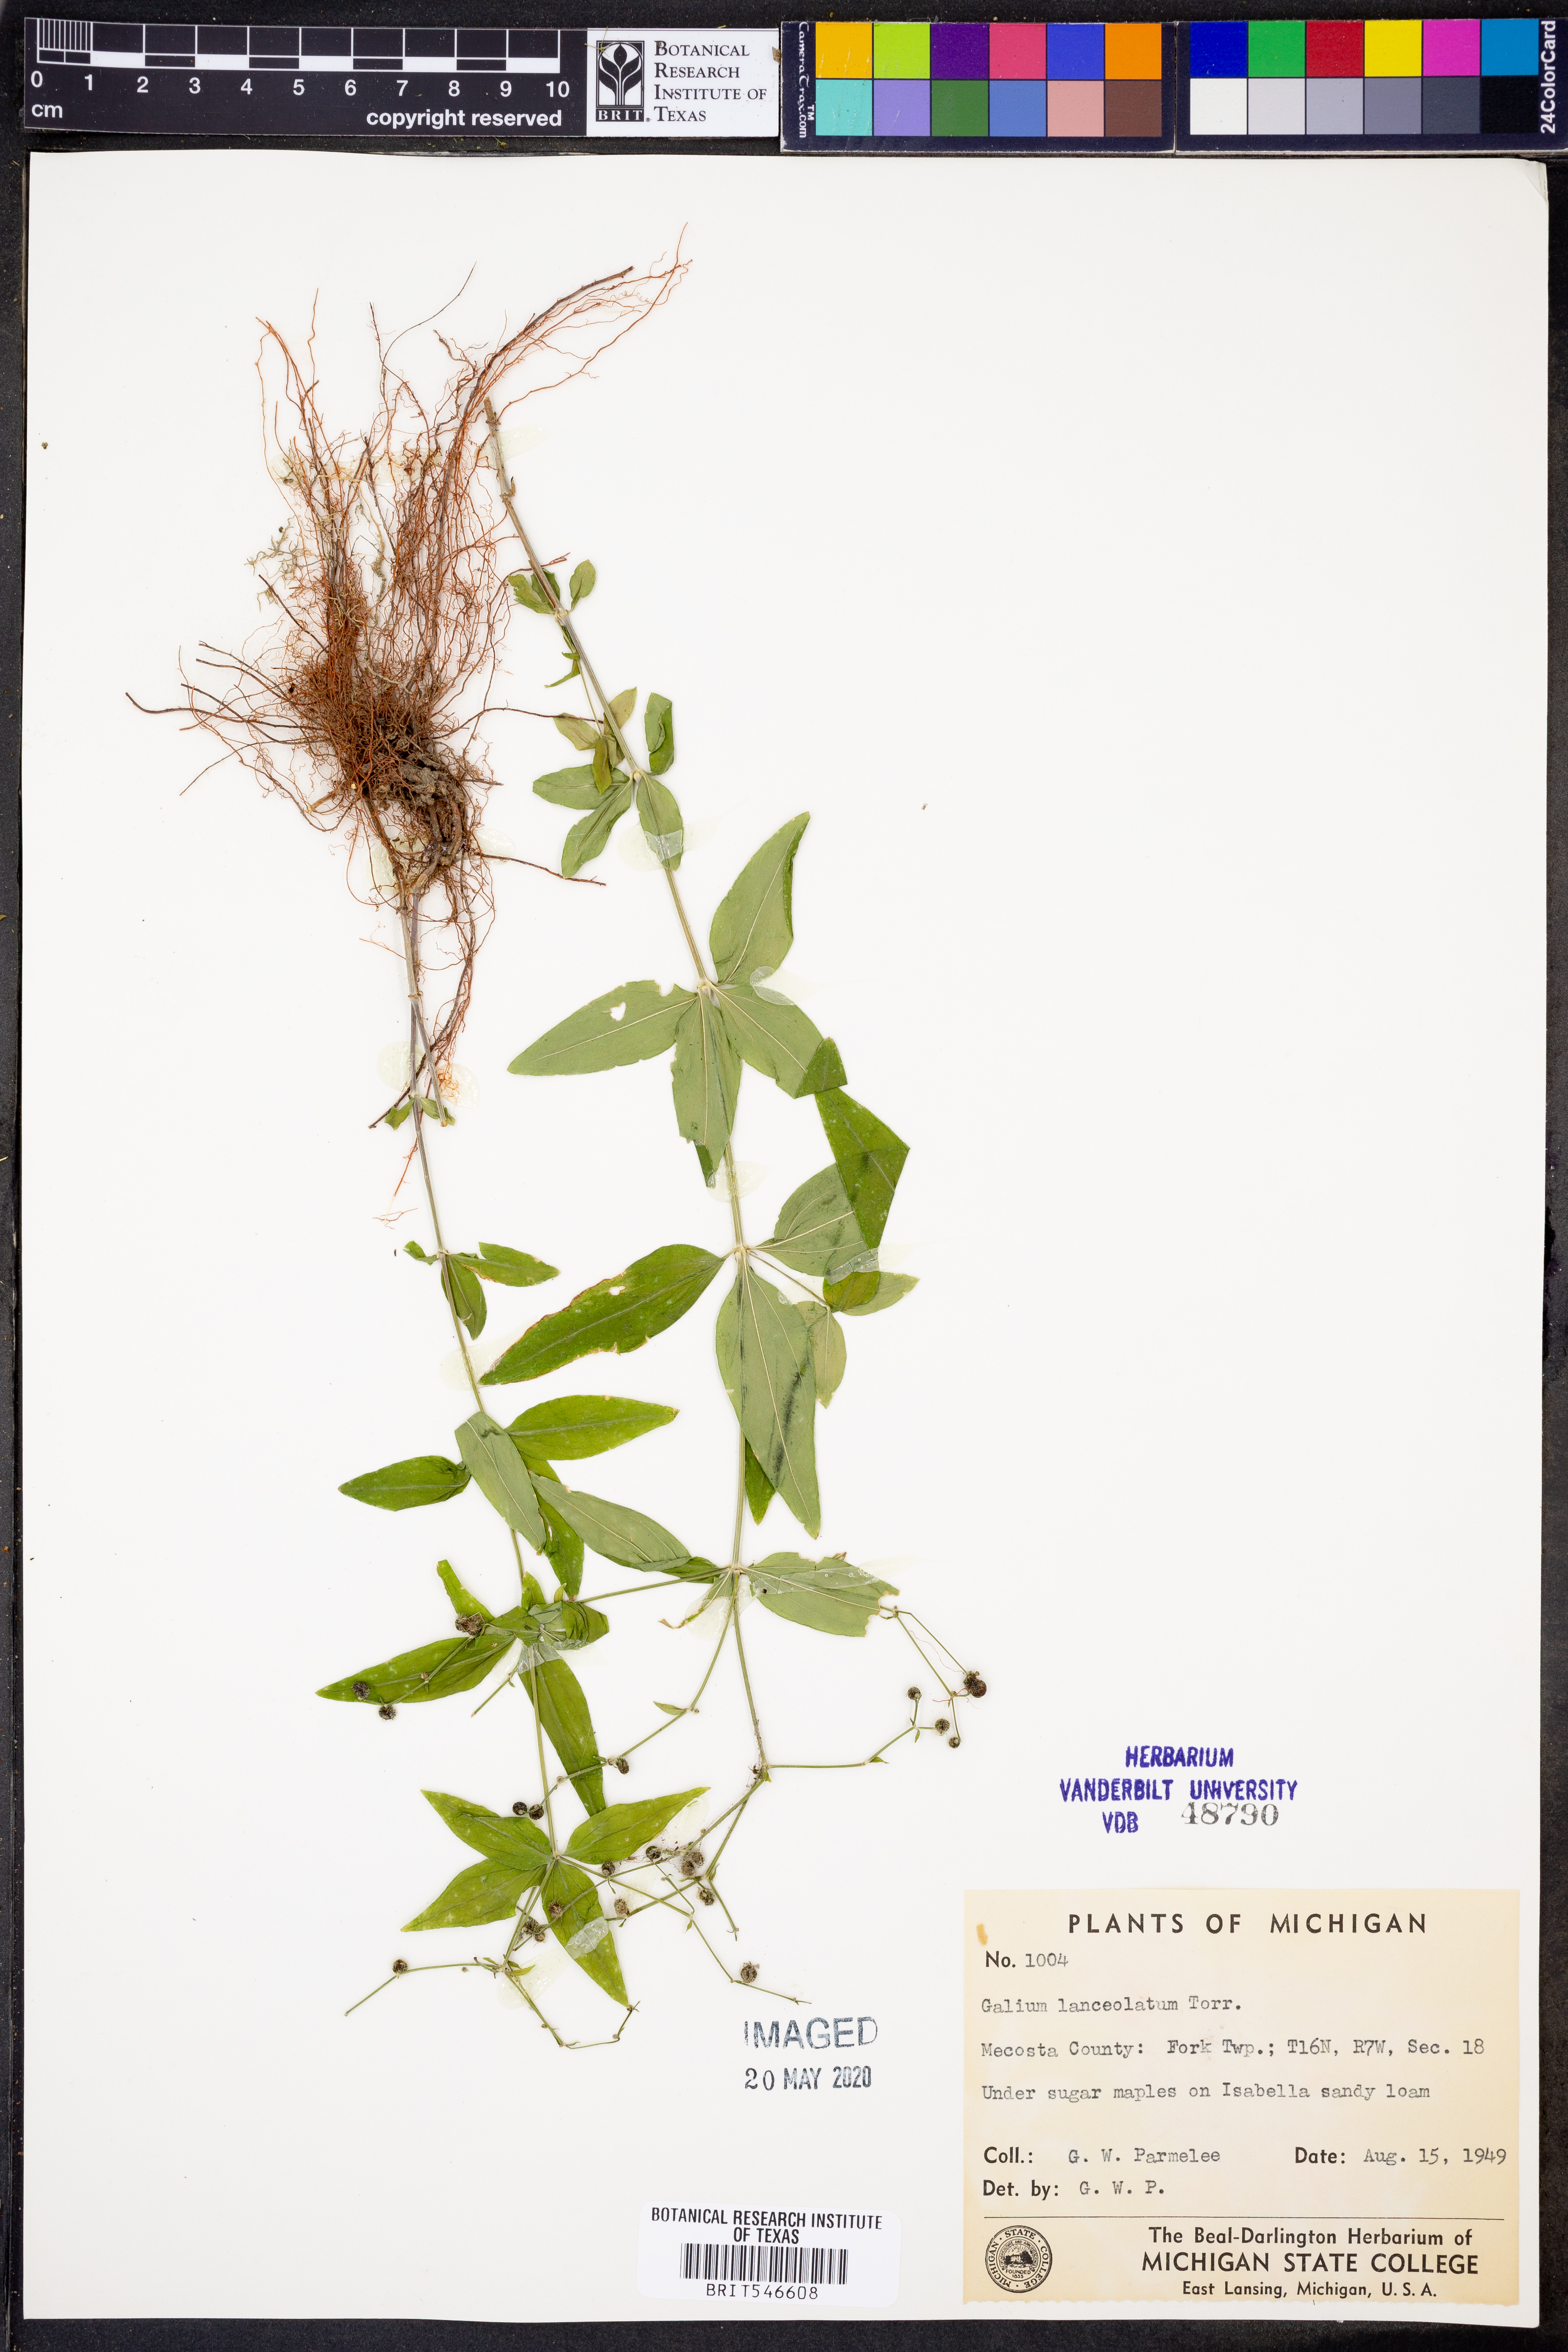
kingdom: Plantae
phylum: Tracheophyta
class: Magnoliopsida
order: Gentianales
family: Rubiaceae
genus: Galium
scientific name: Galium lanceolatum
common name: Lance-leaved wild licorice
